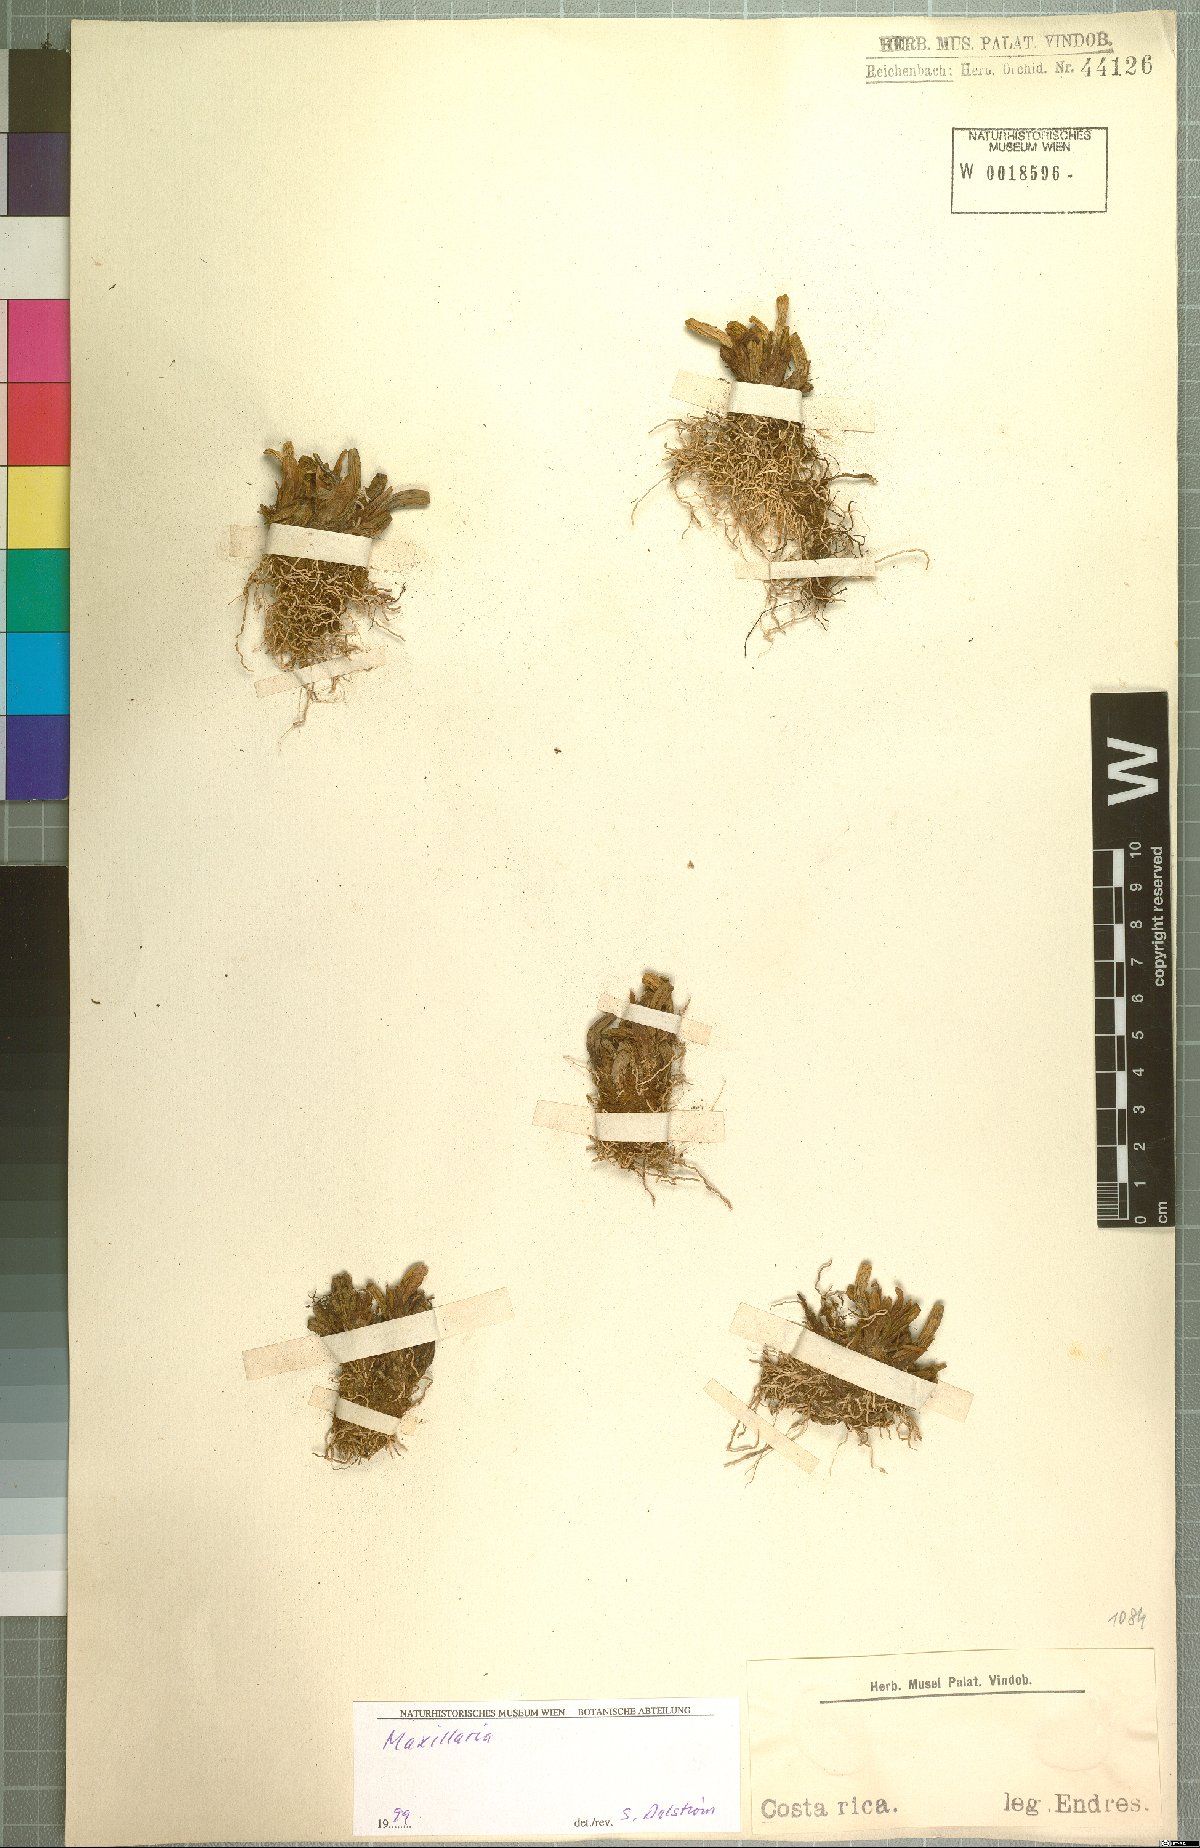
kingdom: Plantae
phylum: Tracheophyta
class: Liliopsida
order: Asparagales
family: Orchidaceae
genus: Maxillaria
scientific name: Maxillaria
